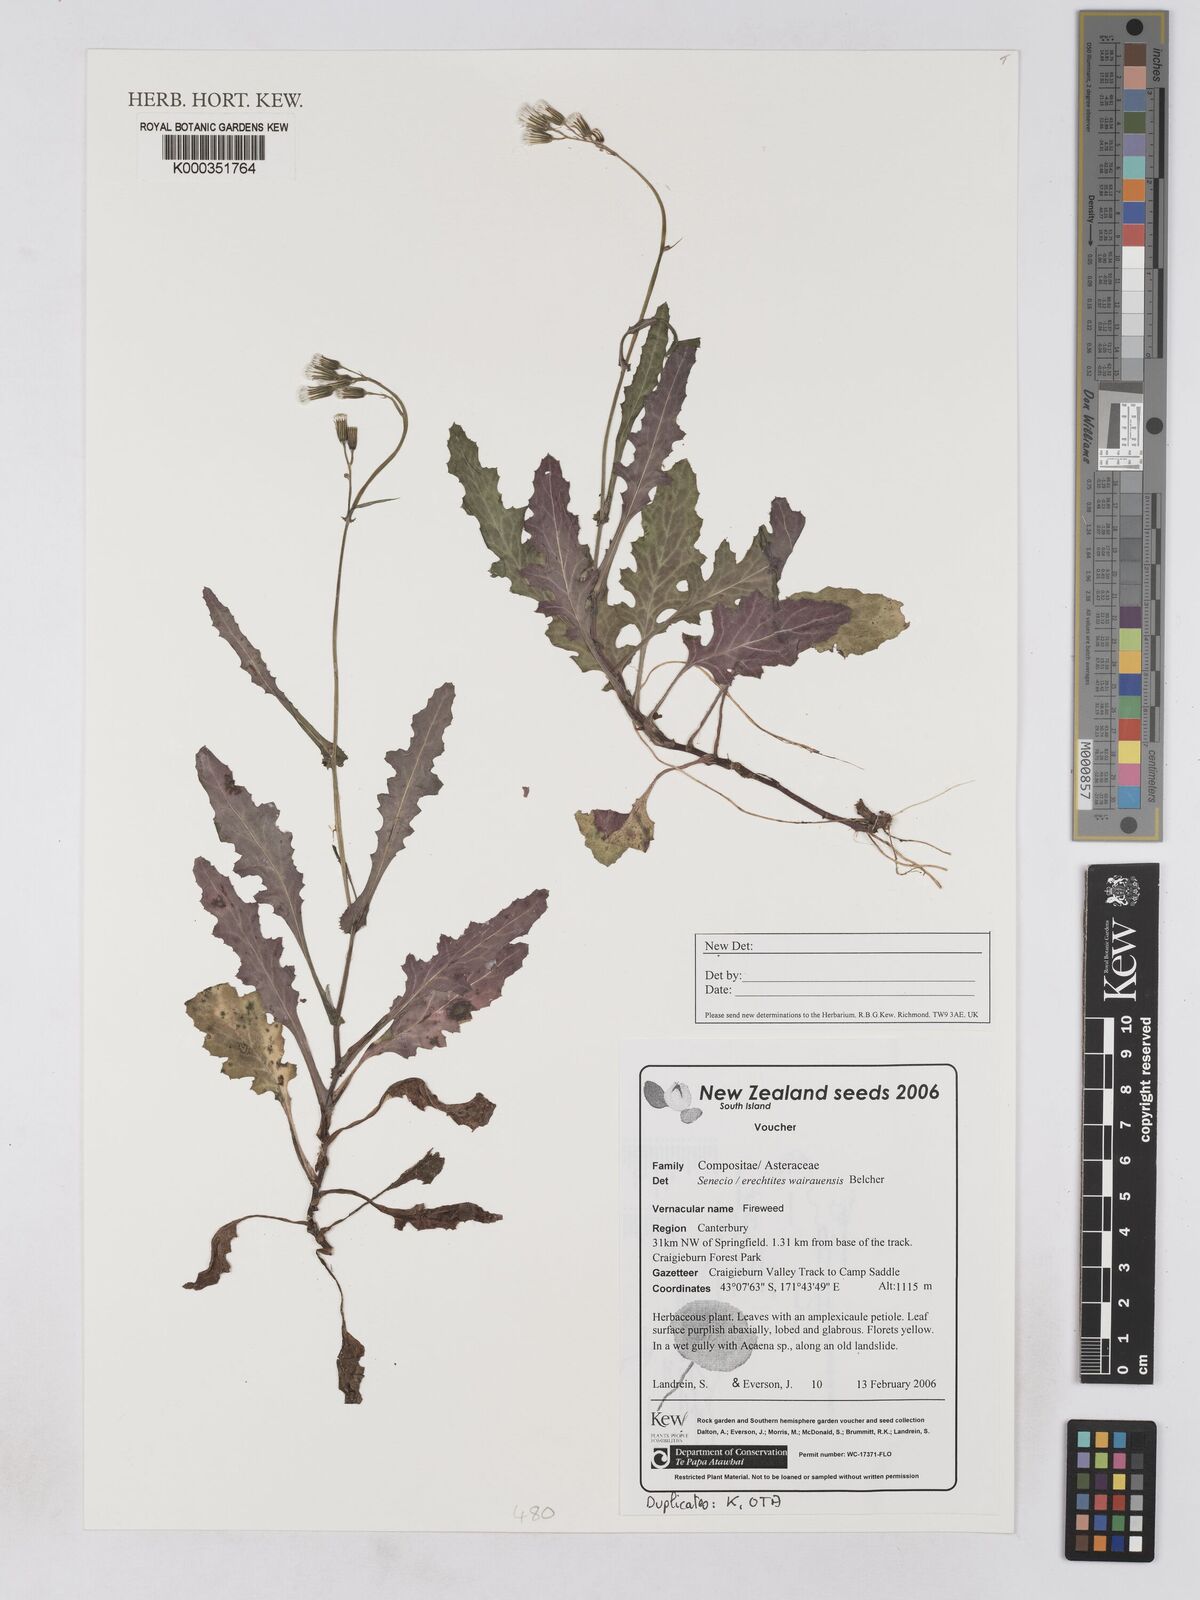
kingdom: Plantae
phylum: Tracheophyta
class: Magnoliopsida
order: Asterales
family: Asteraceae
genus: Senecio
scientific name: Senecio wairauensis
